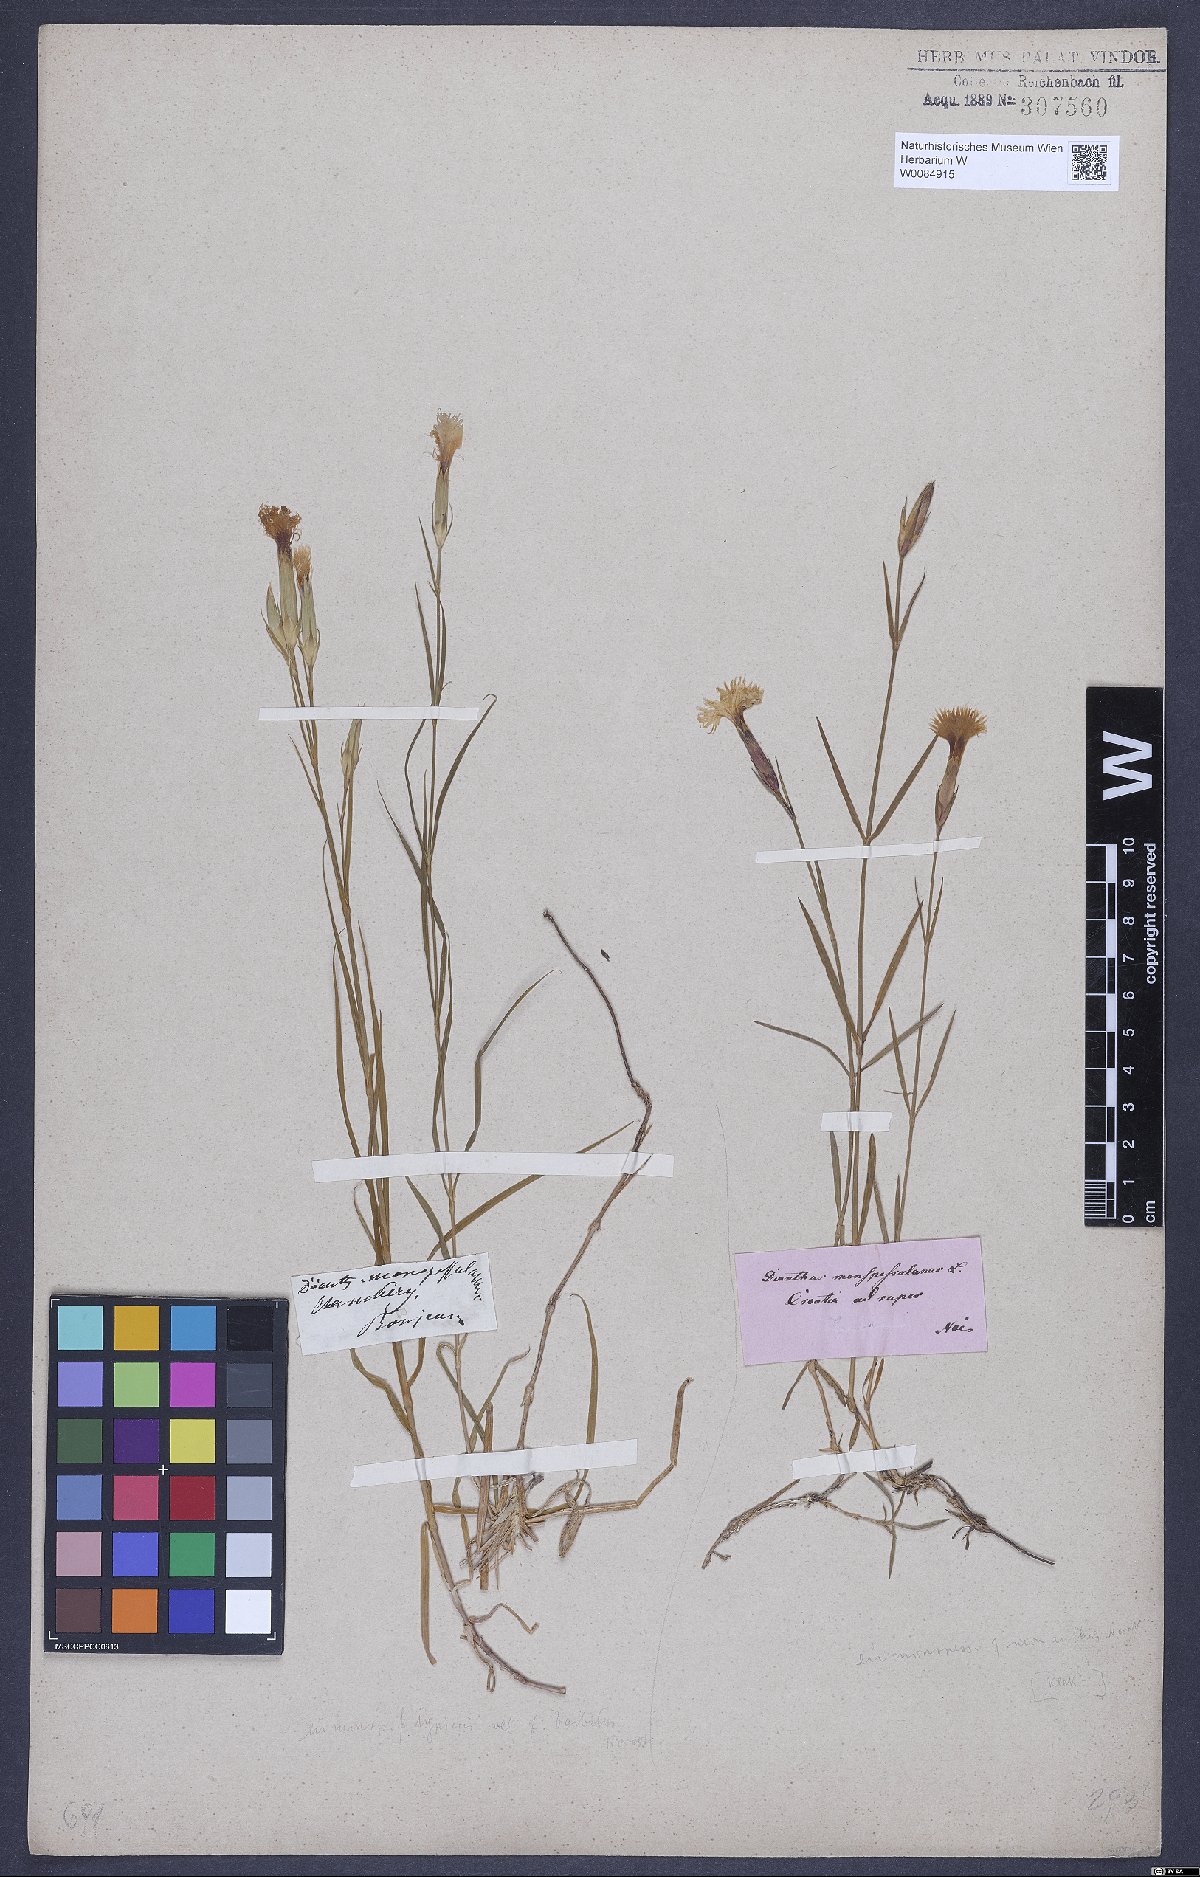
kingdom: Plantae
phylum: Tracheophyta
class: Magnoliopsida
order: Caryophyllales
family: Caryophyllaceae
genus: Dianthus
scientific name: Dianthus hyssopifolius
